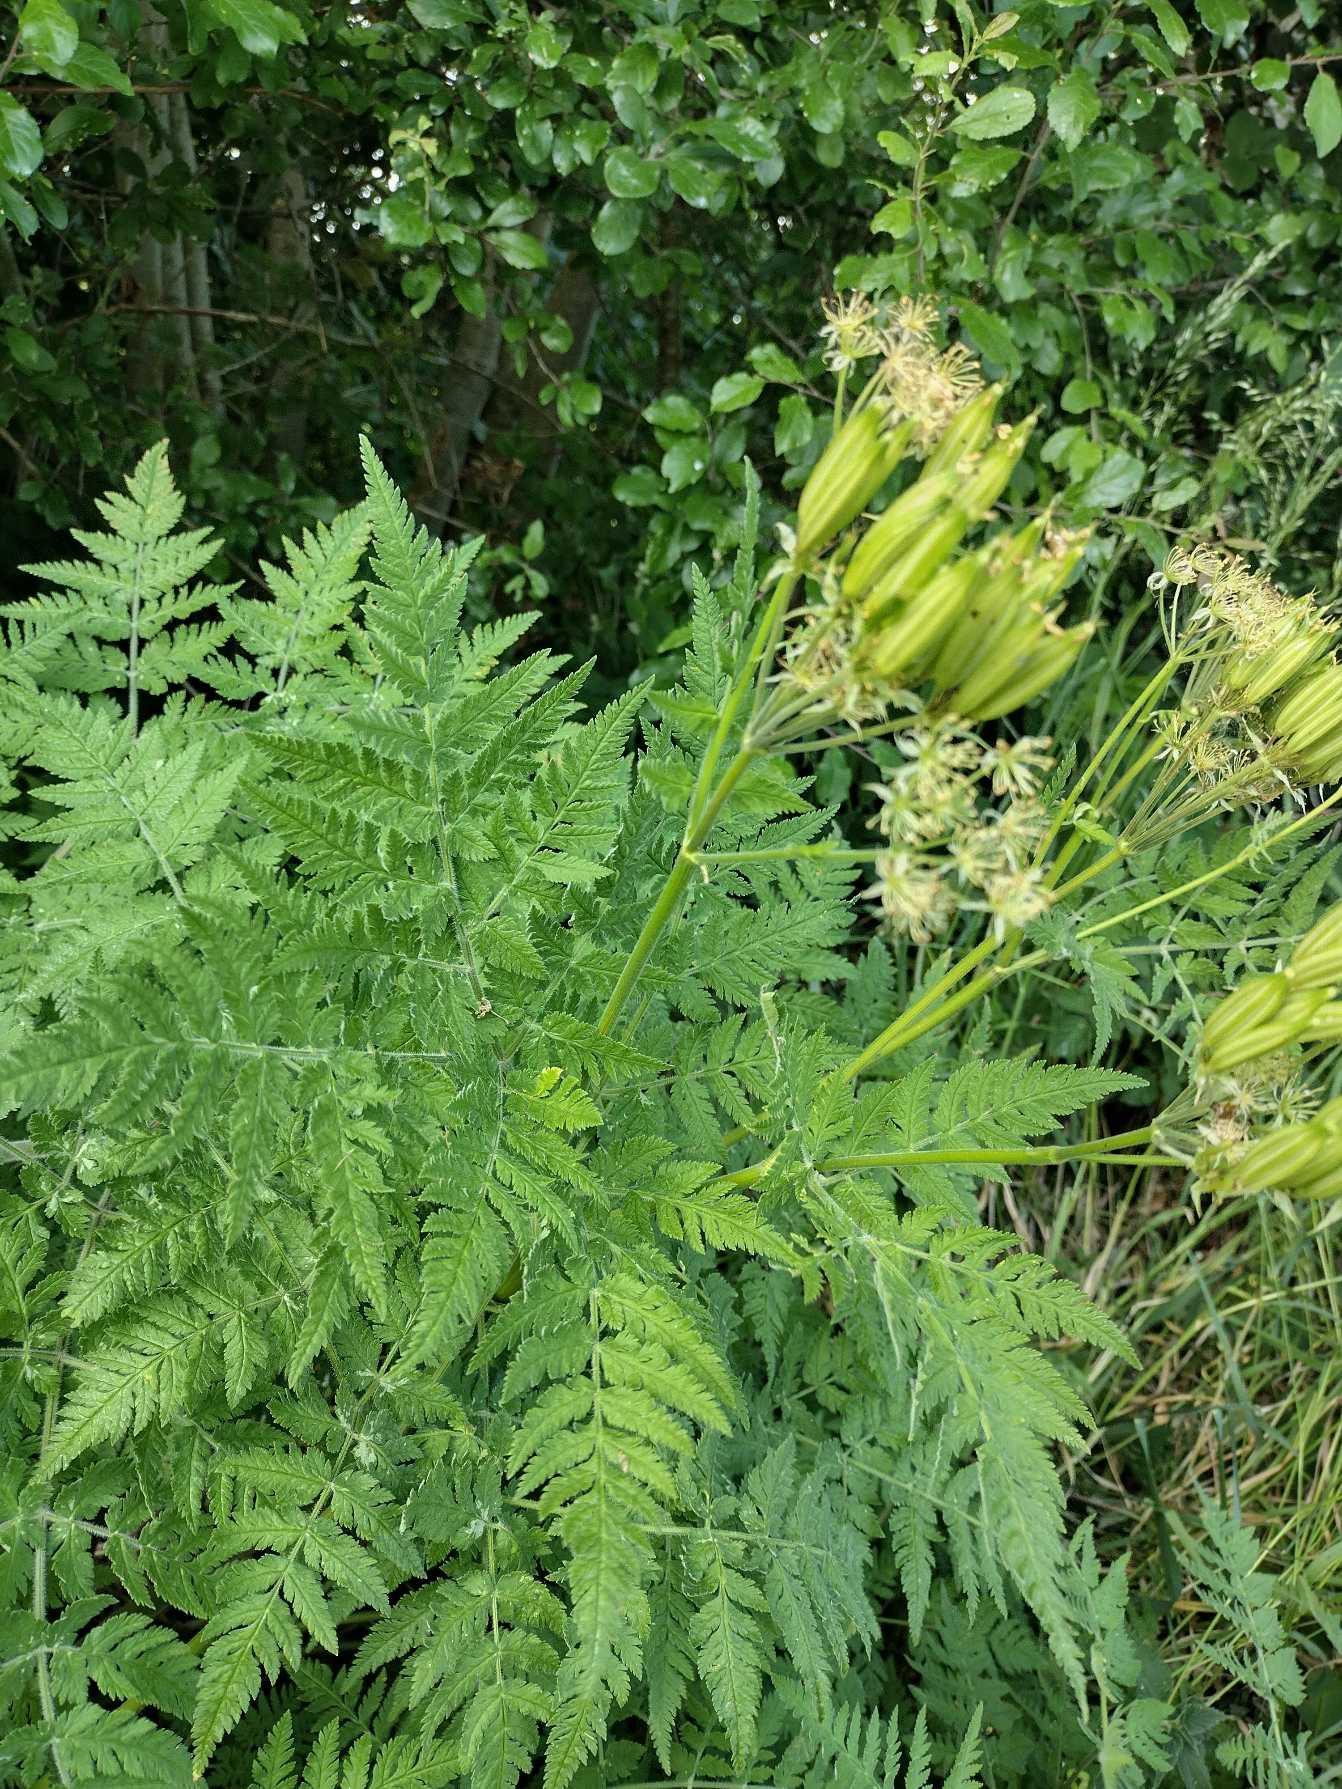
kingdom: Plantae
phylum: Tracheophyta
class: Magnoliopsida
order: Apiales
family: Apiaceae
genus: Myrrhis
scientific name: Myrrhis odorata
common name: Sødskærm
